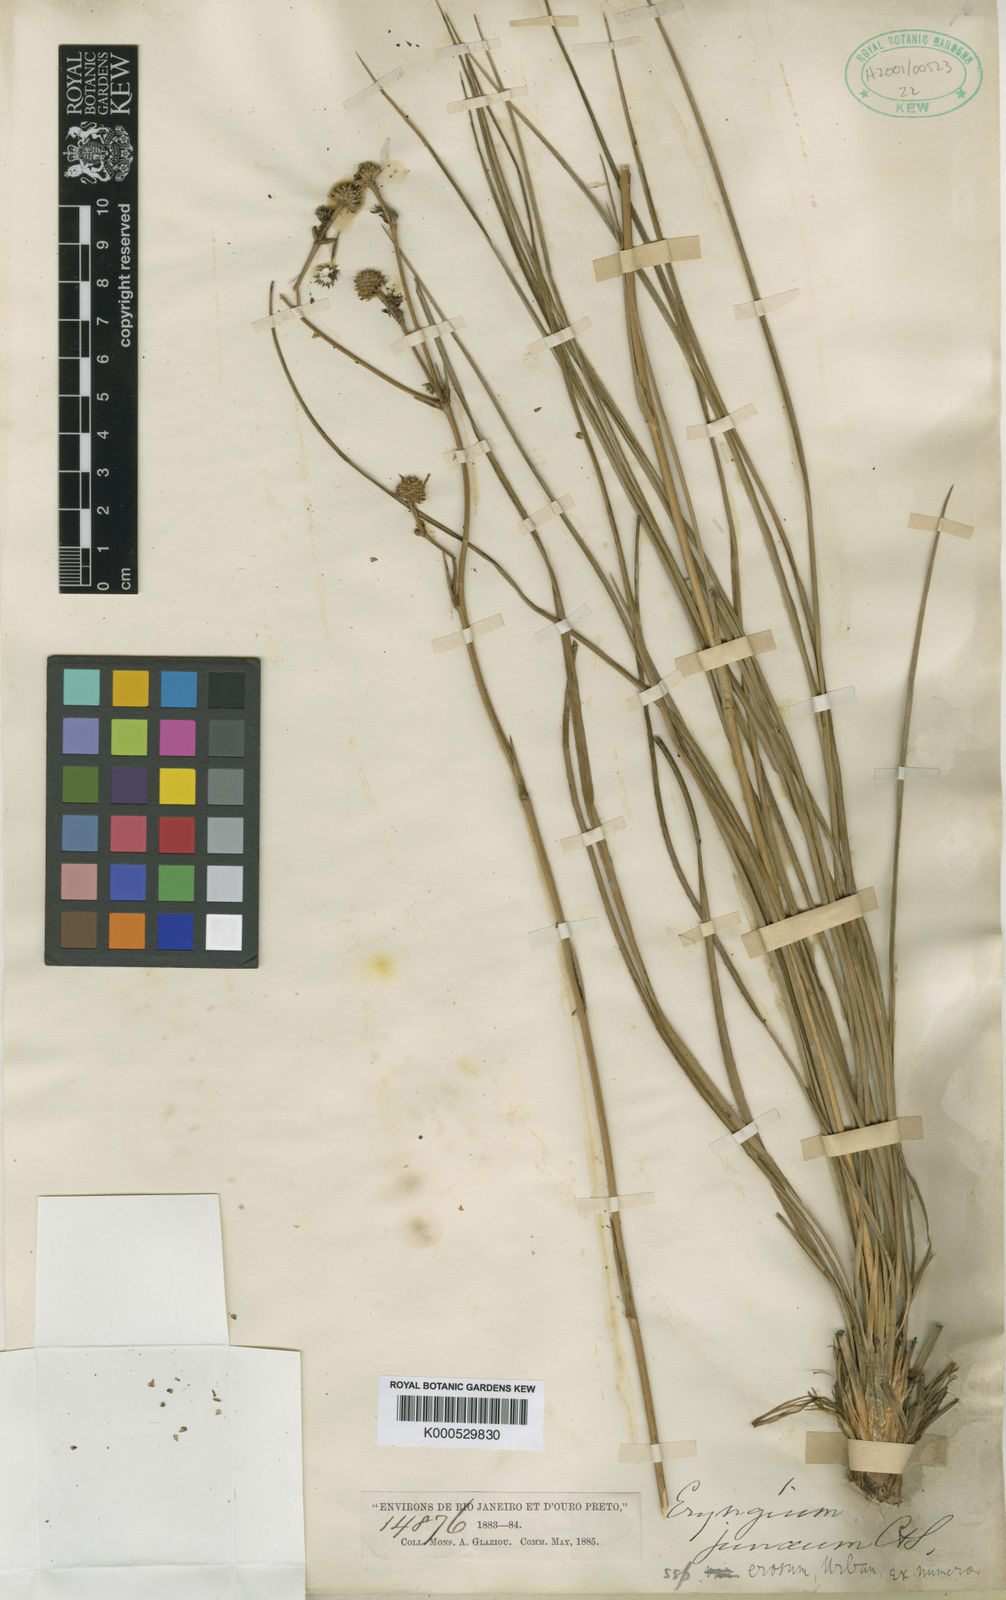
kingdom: Plantae
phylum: Tracheophyta
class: Magnoliopsida
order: Apiales
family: Apiaceae
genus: Eryngium
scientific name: Eryngium junceum
